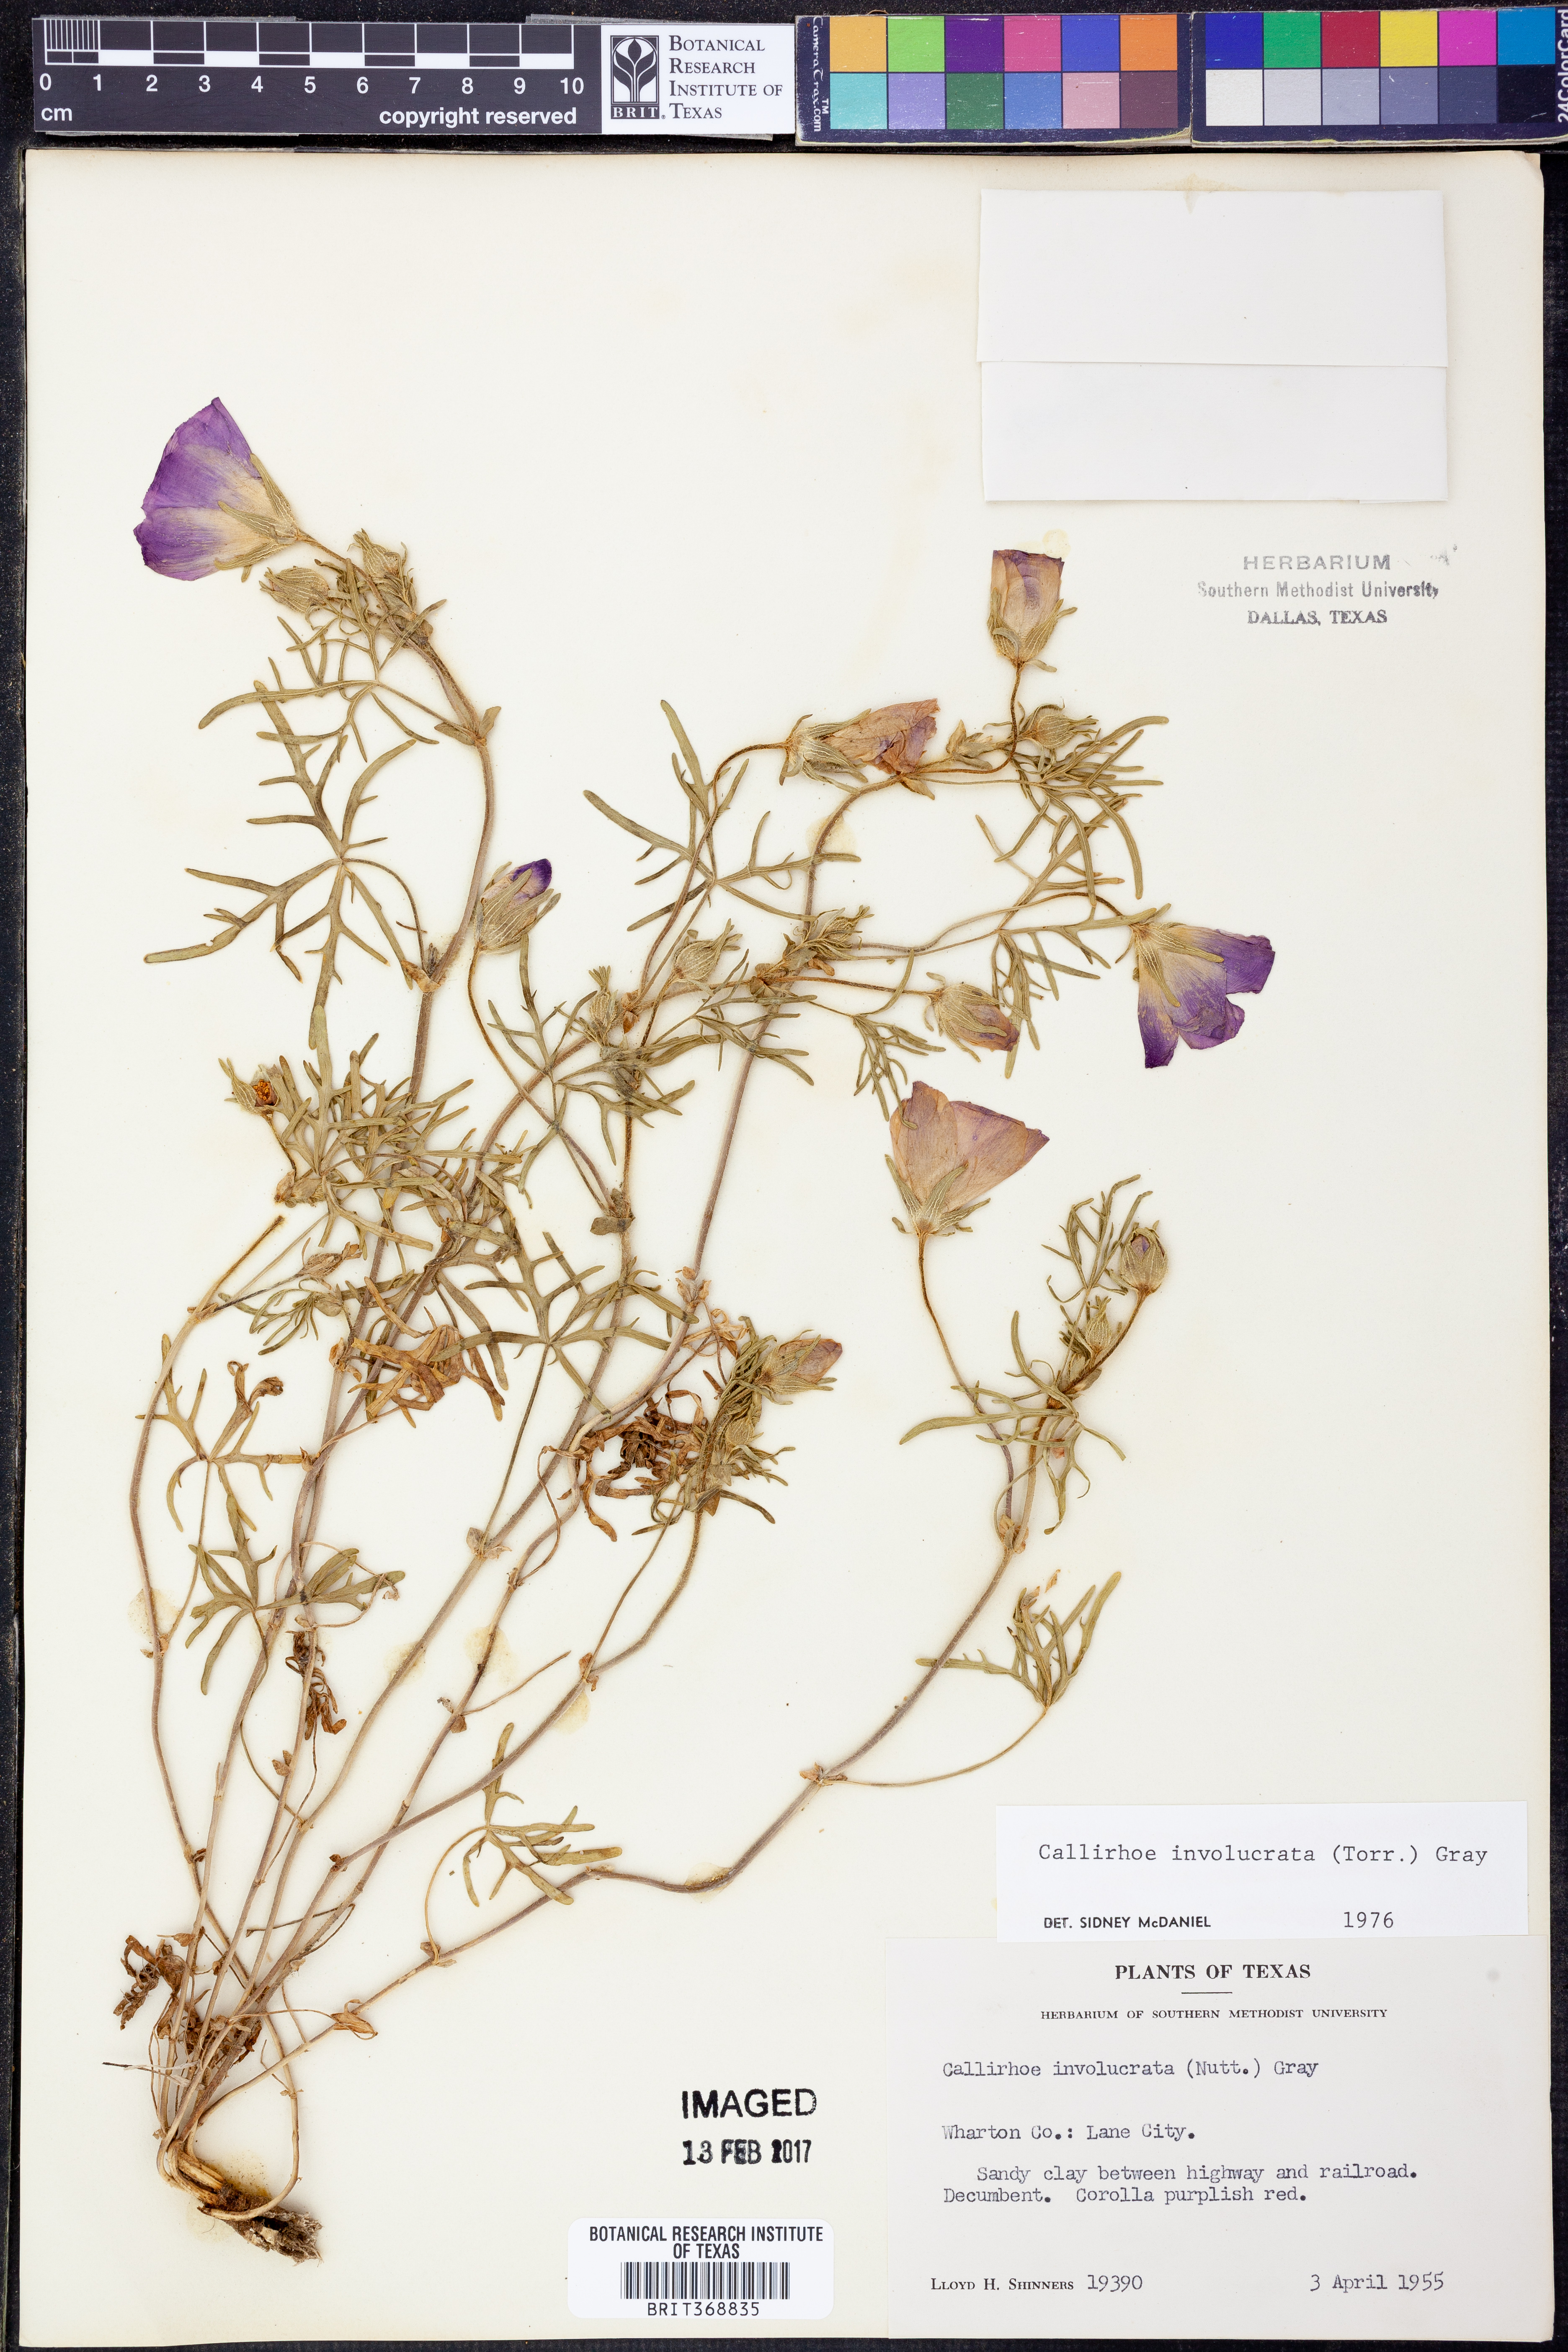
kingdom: Plantae
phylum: Tracheophyta
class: Magnoliopsida
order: Malvales
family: Malvaceae
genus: Callirhoe
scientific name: Callirhoe involucrata
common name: Purple poppy-mallow
